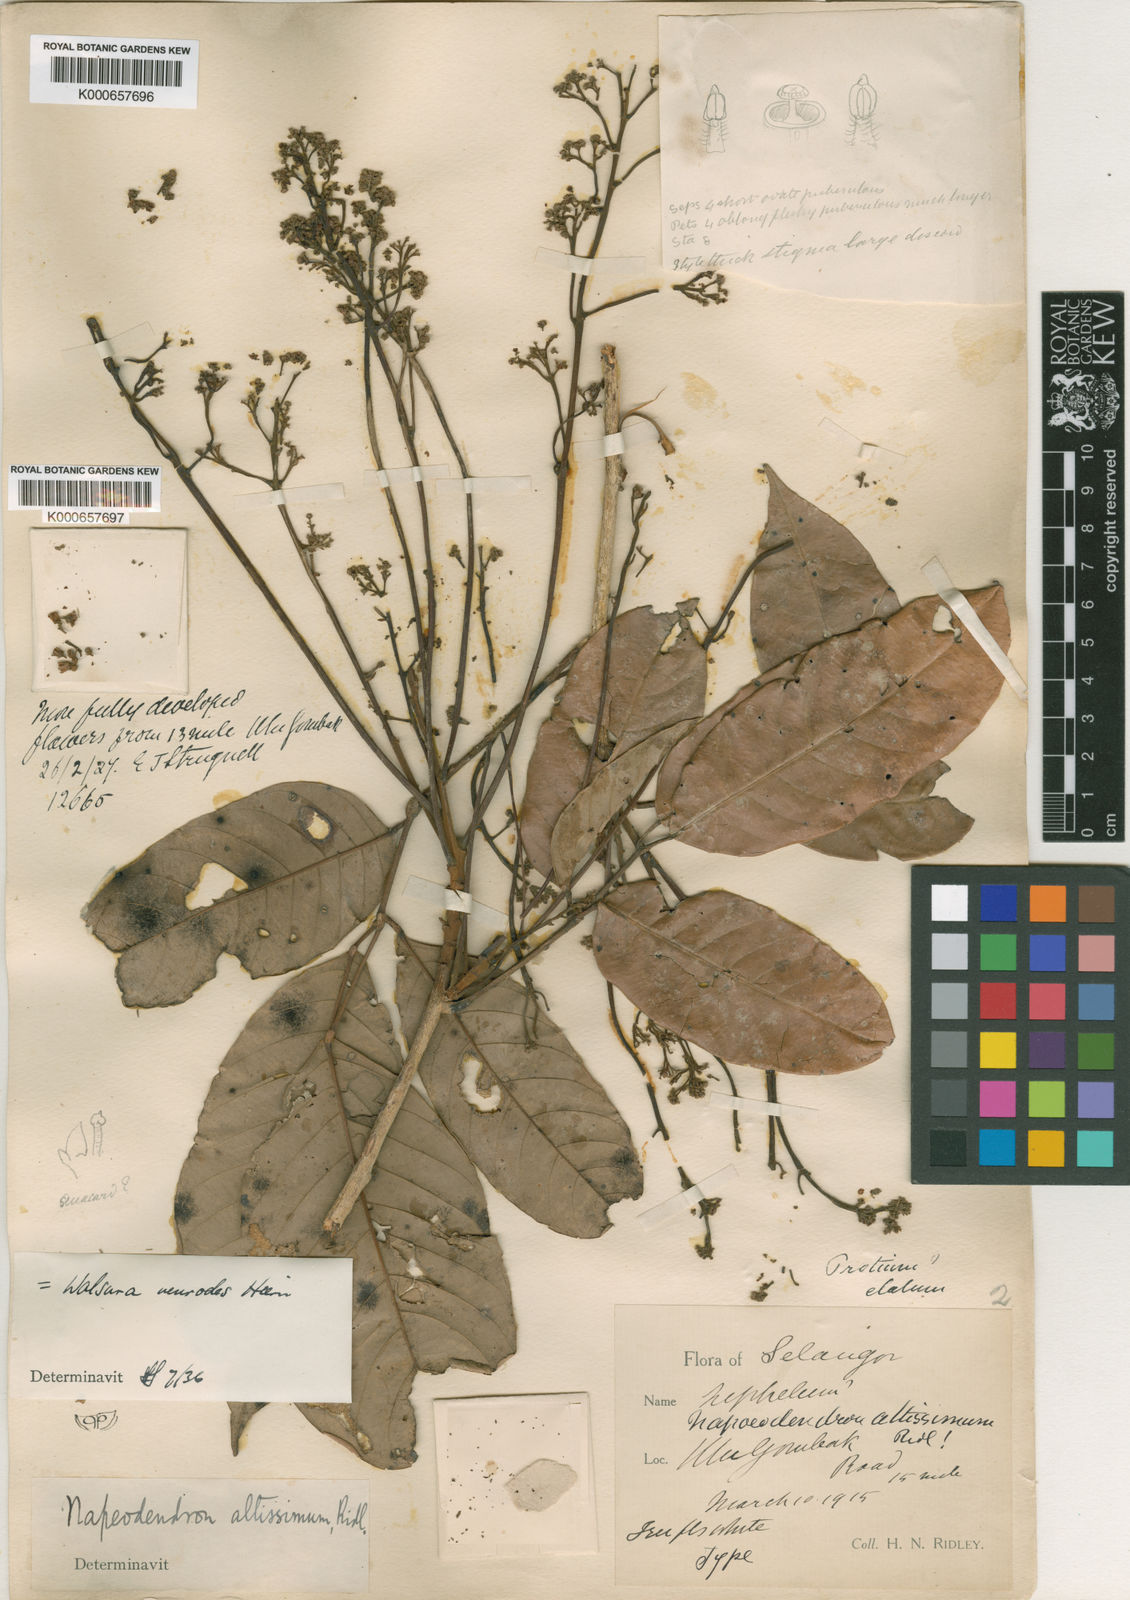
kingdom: Plantae
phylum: Tracheophyta
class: Magnoliopsida
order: Sapindales
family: Meliaceae
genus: Walsura
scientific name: Walsura pinnata
